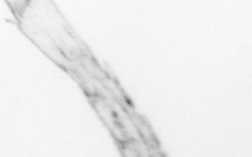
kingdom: Animalia
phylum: Arthropoda
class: Copepoda
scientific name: Copepoda
